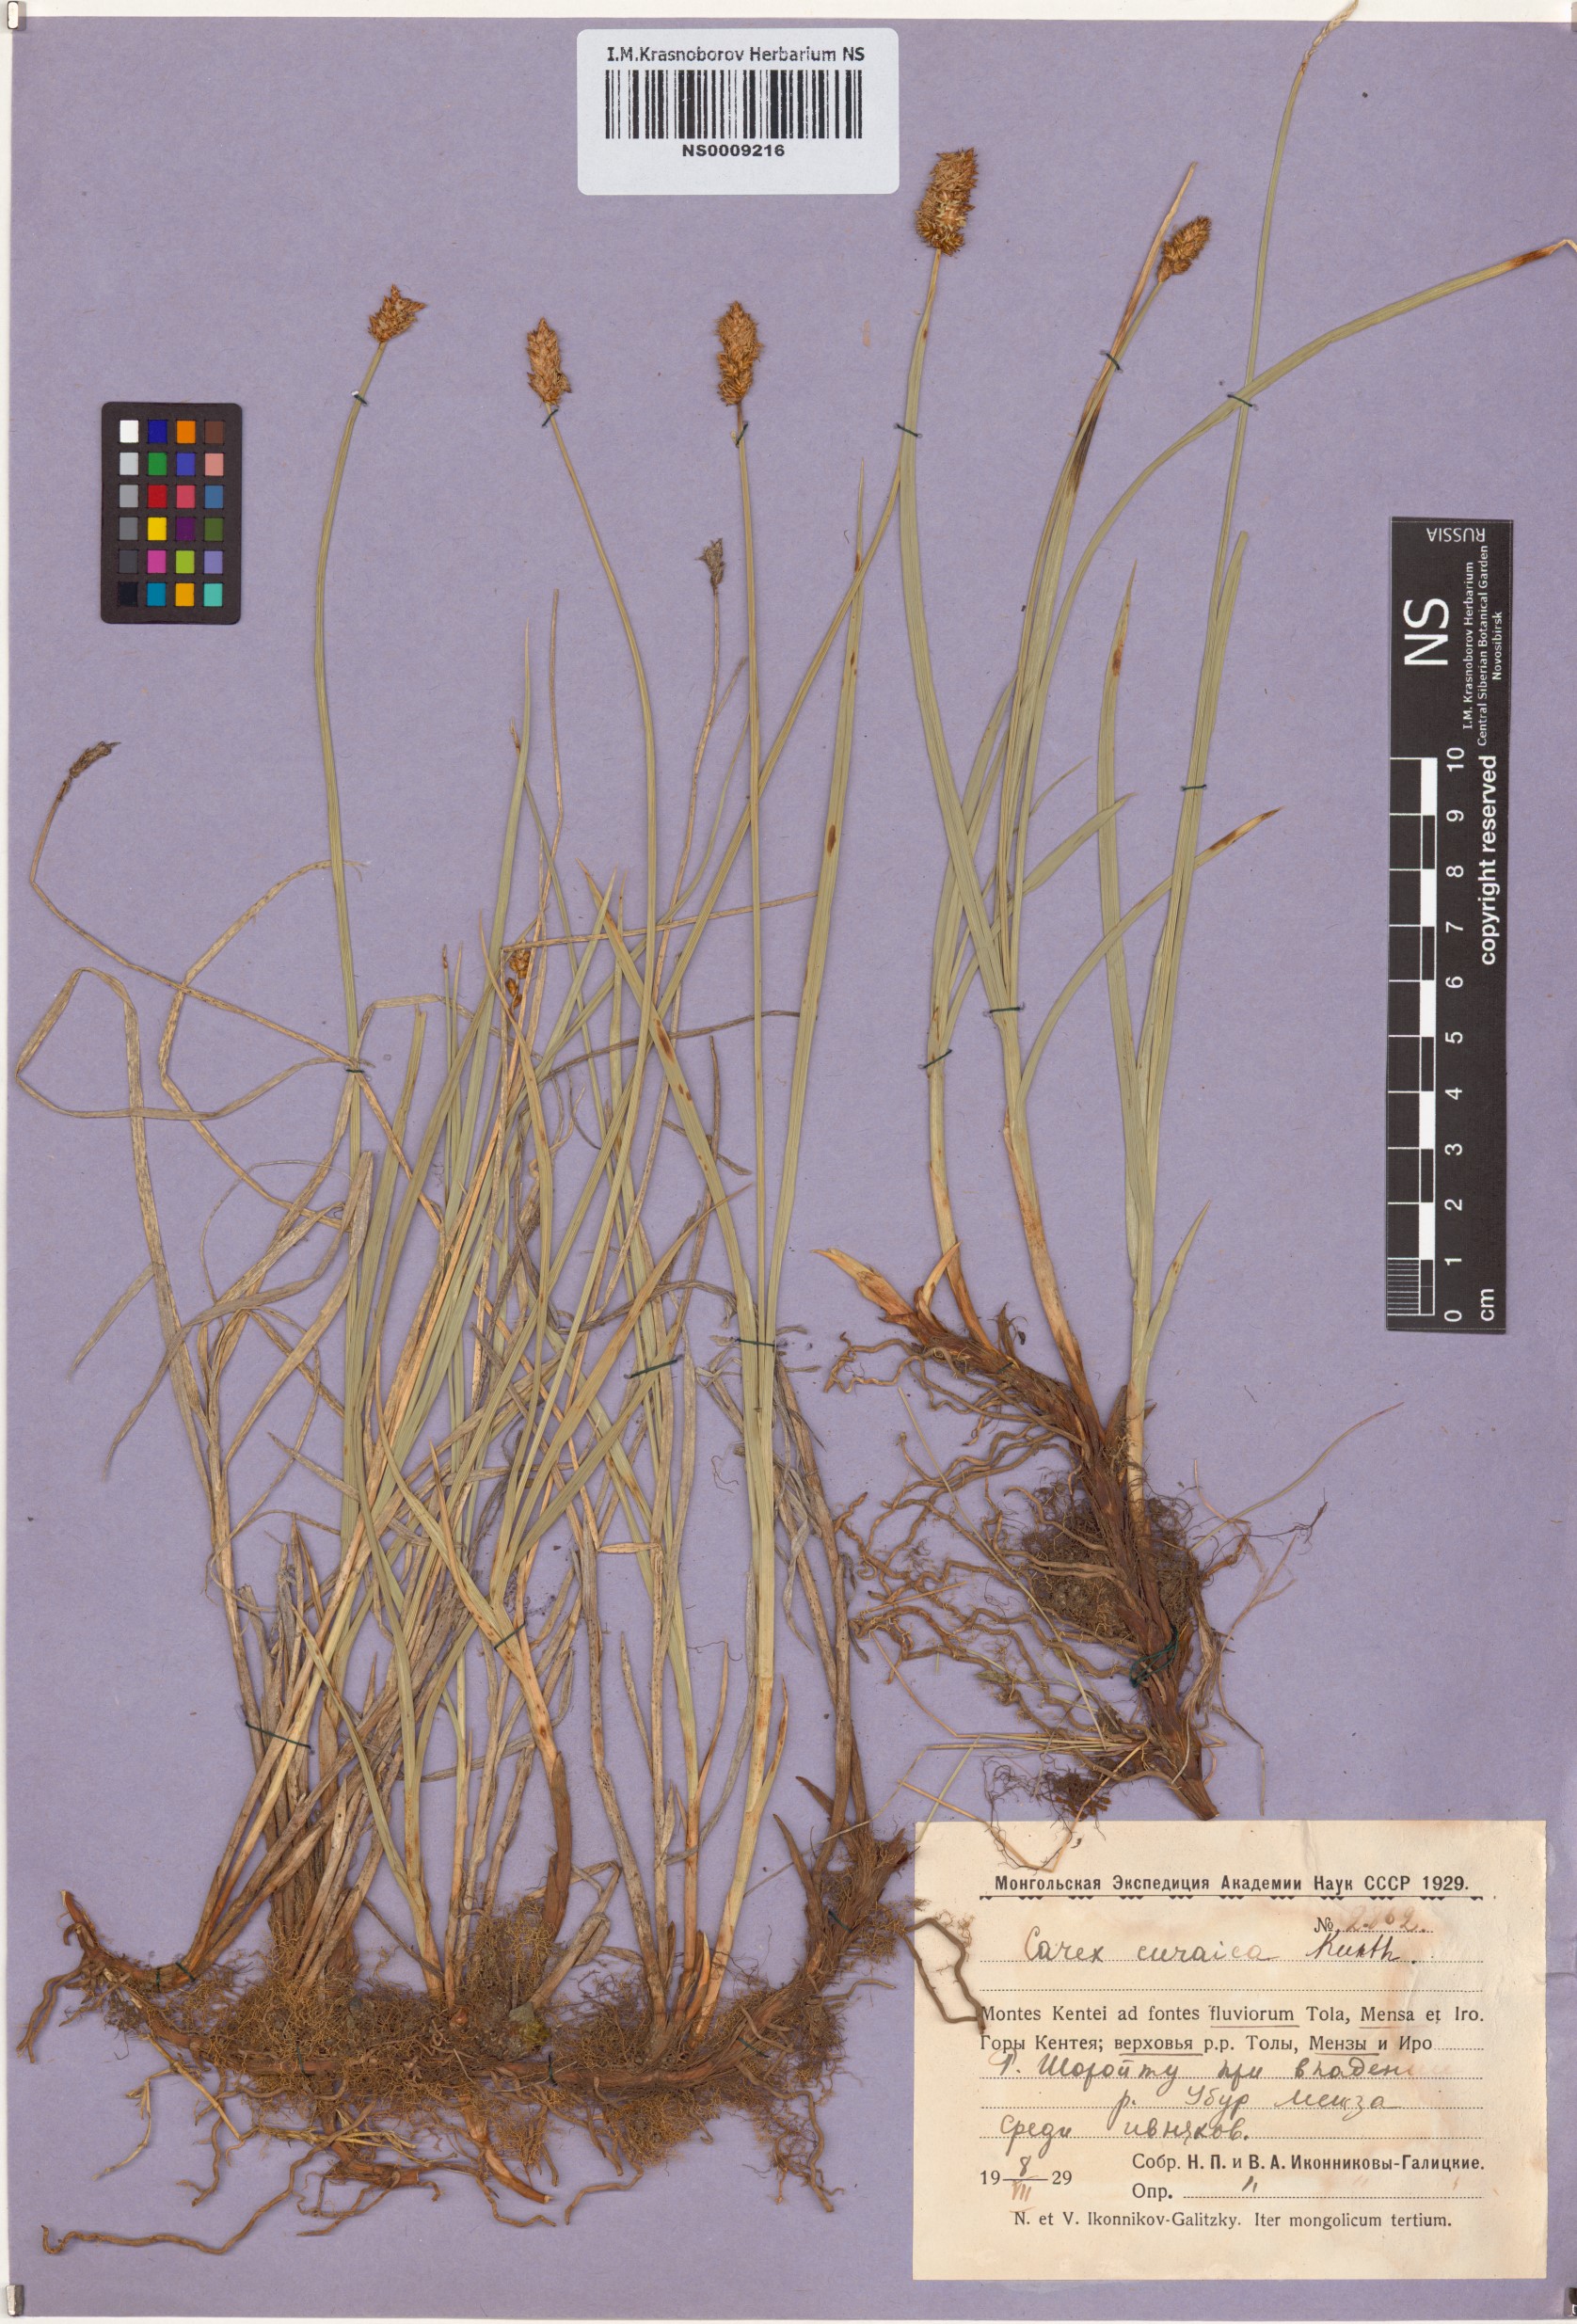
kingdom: Plantae
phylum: Tracheophyta
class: Liliopsida
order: Poales
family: Cyperaceae
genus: Carex
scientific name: Carex curaica
